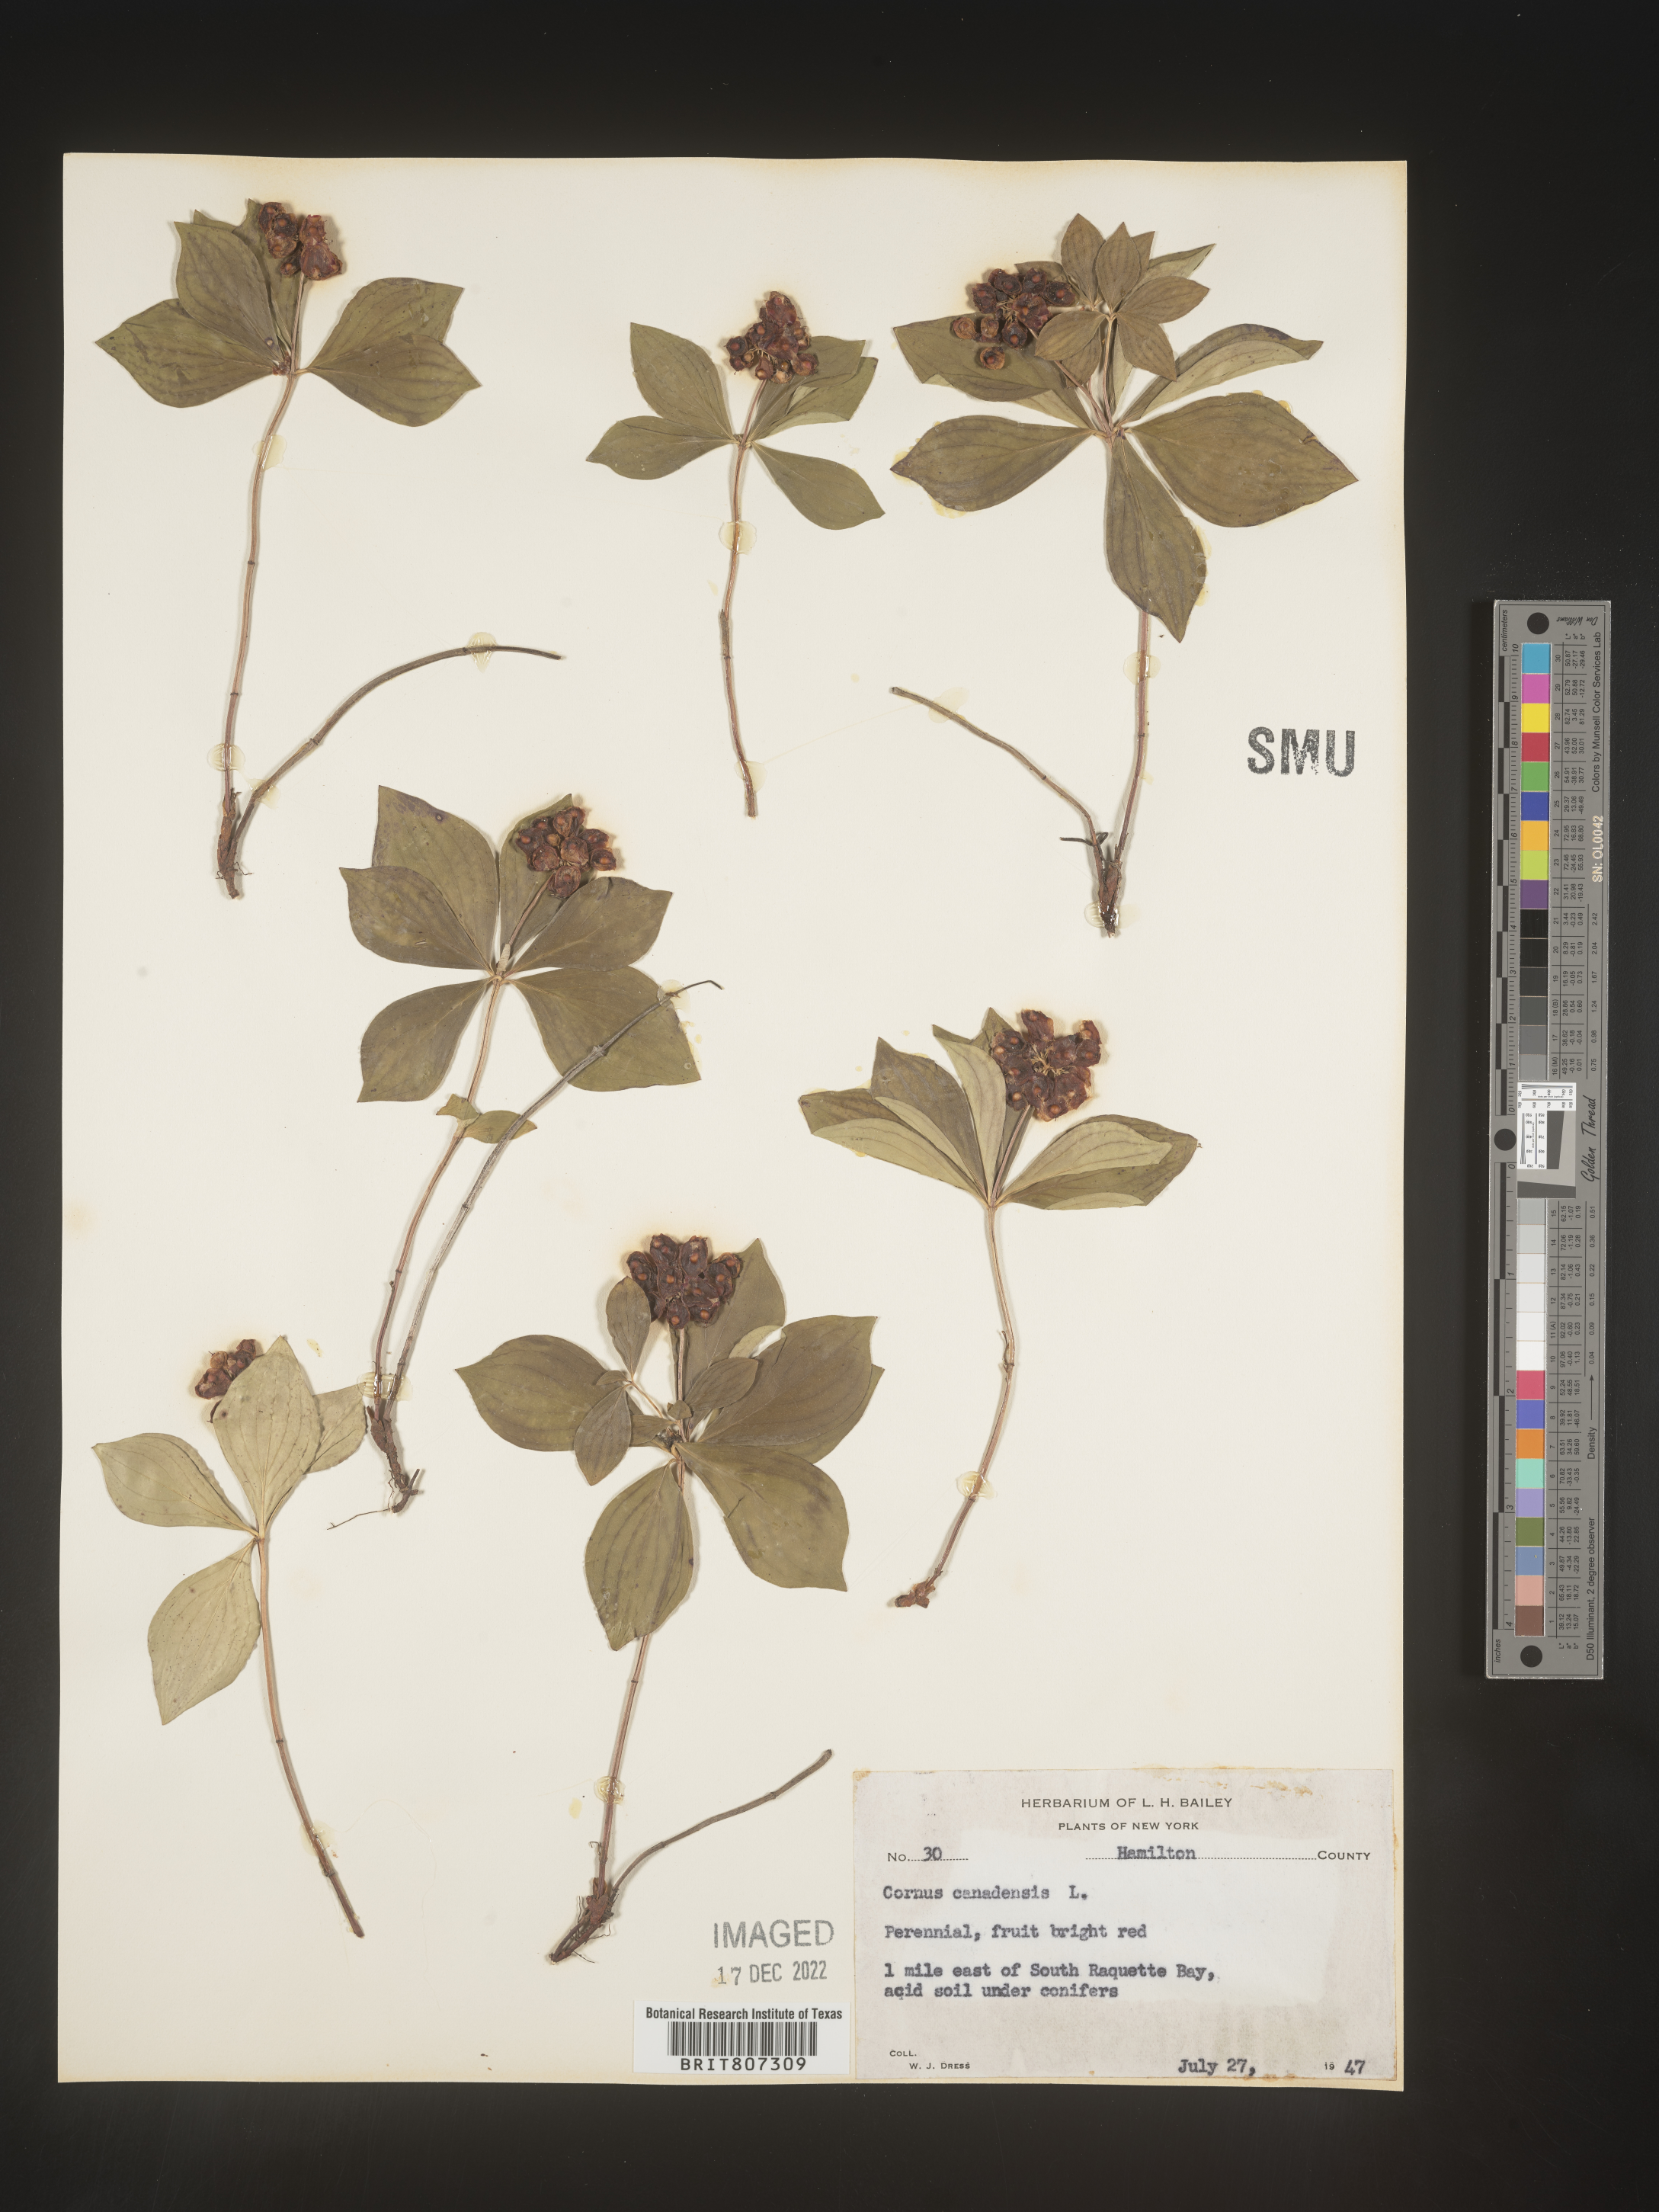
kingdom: Plantae
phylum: Tracheophyta
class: Magnoliopsida
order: Cornales
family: Cornaceae
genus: Cornus
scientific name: Cornus canadensis
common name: Creeping dogwood
